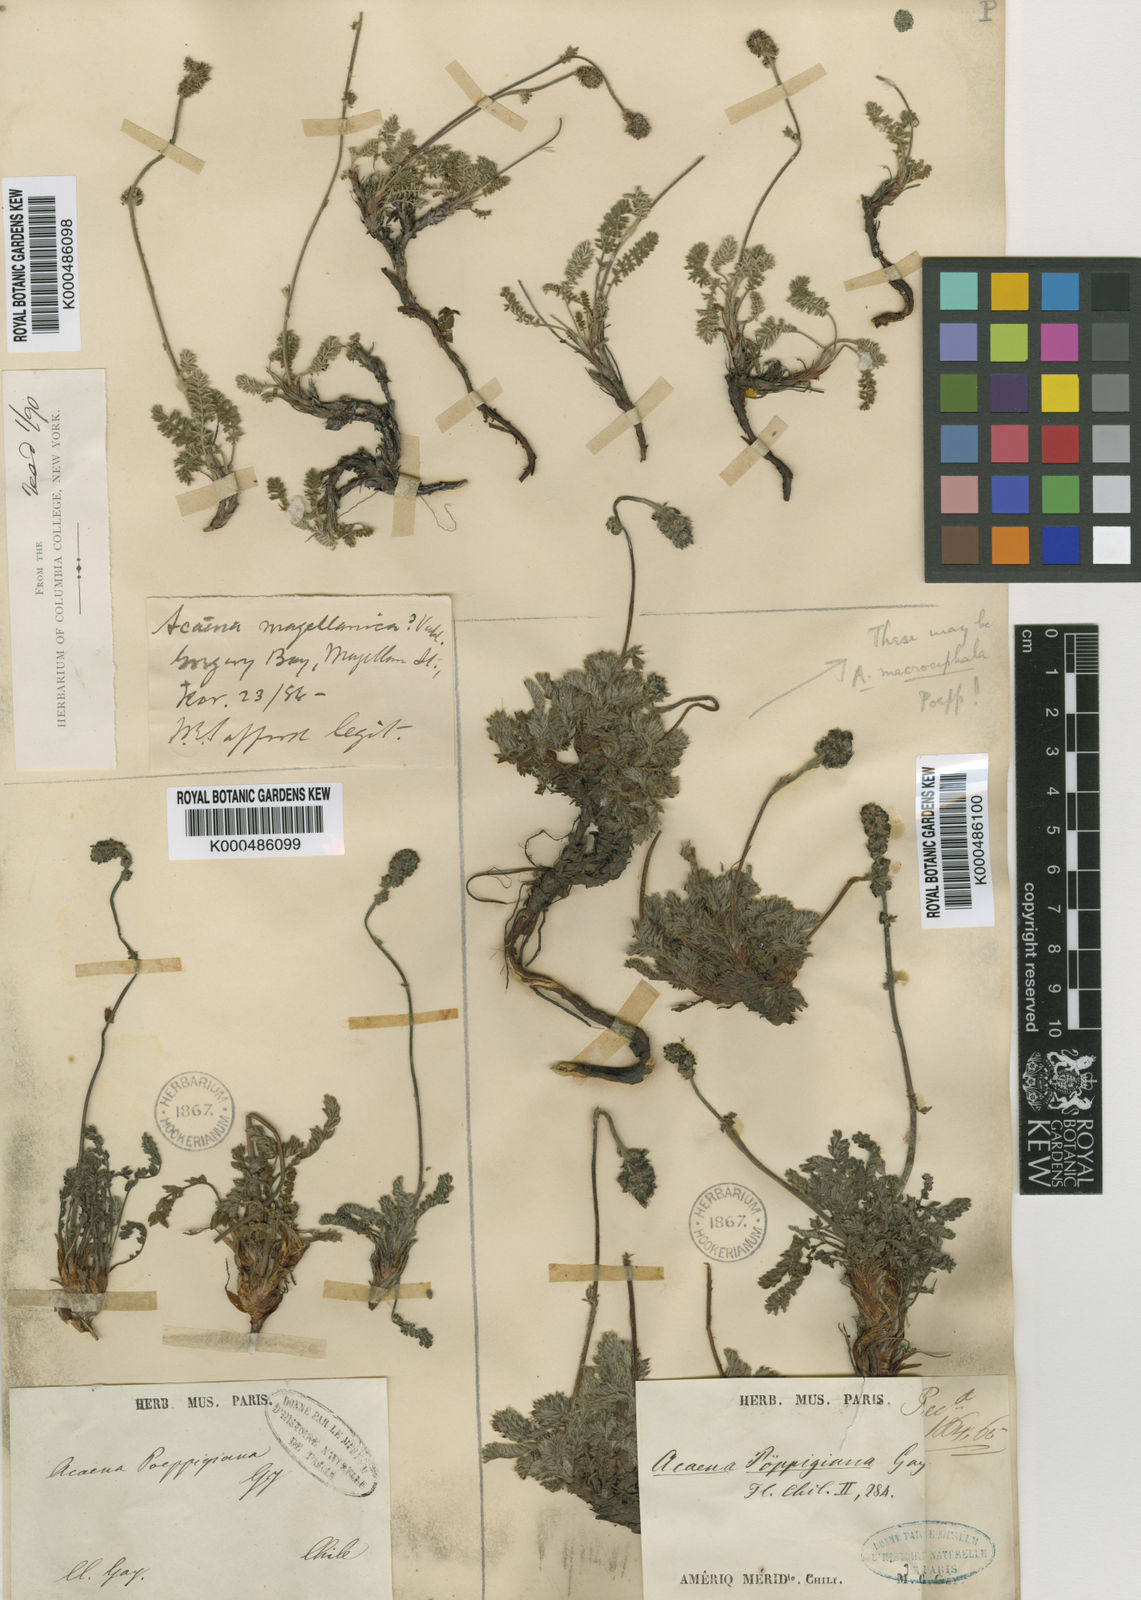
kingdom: Plantae
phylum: Tracheophyta
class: Magnoliopsida
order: Rosales
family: Rosaceae
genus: Acaena
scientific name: Acaena poeppigiana
